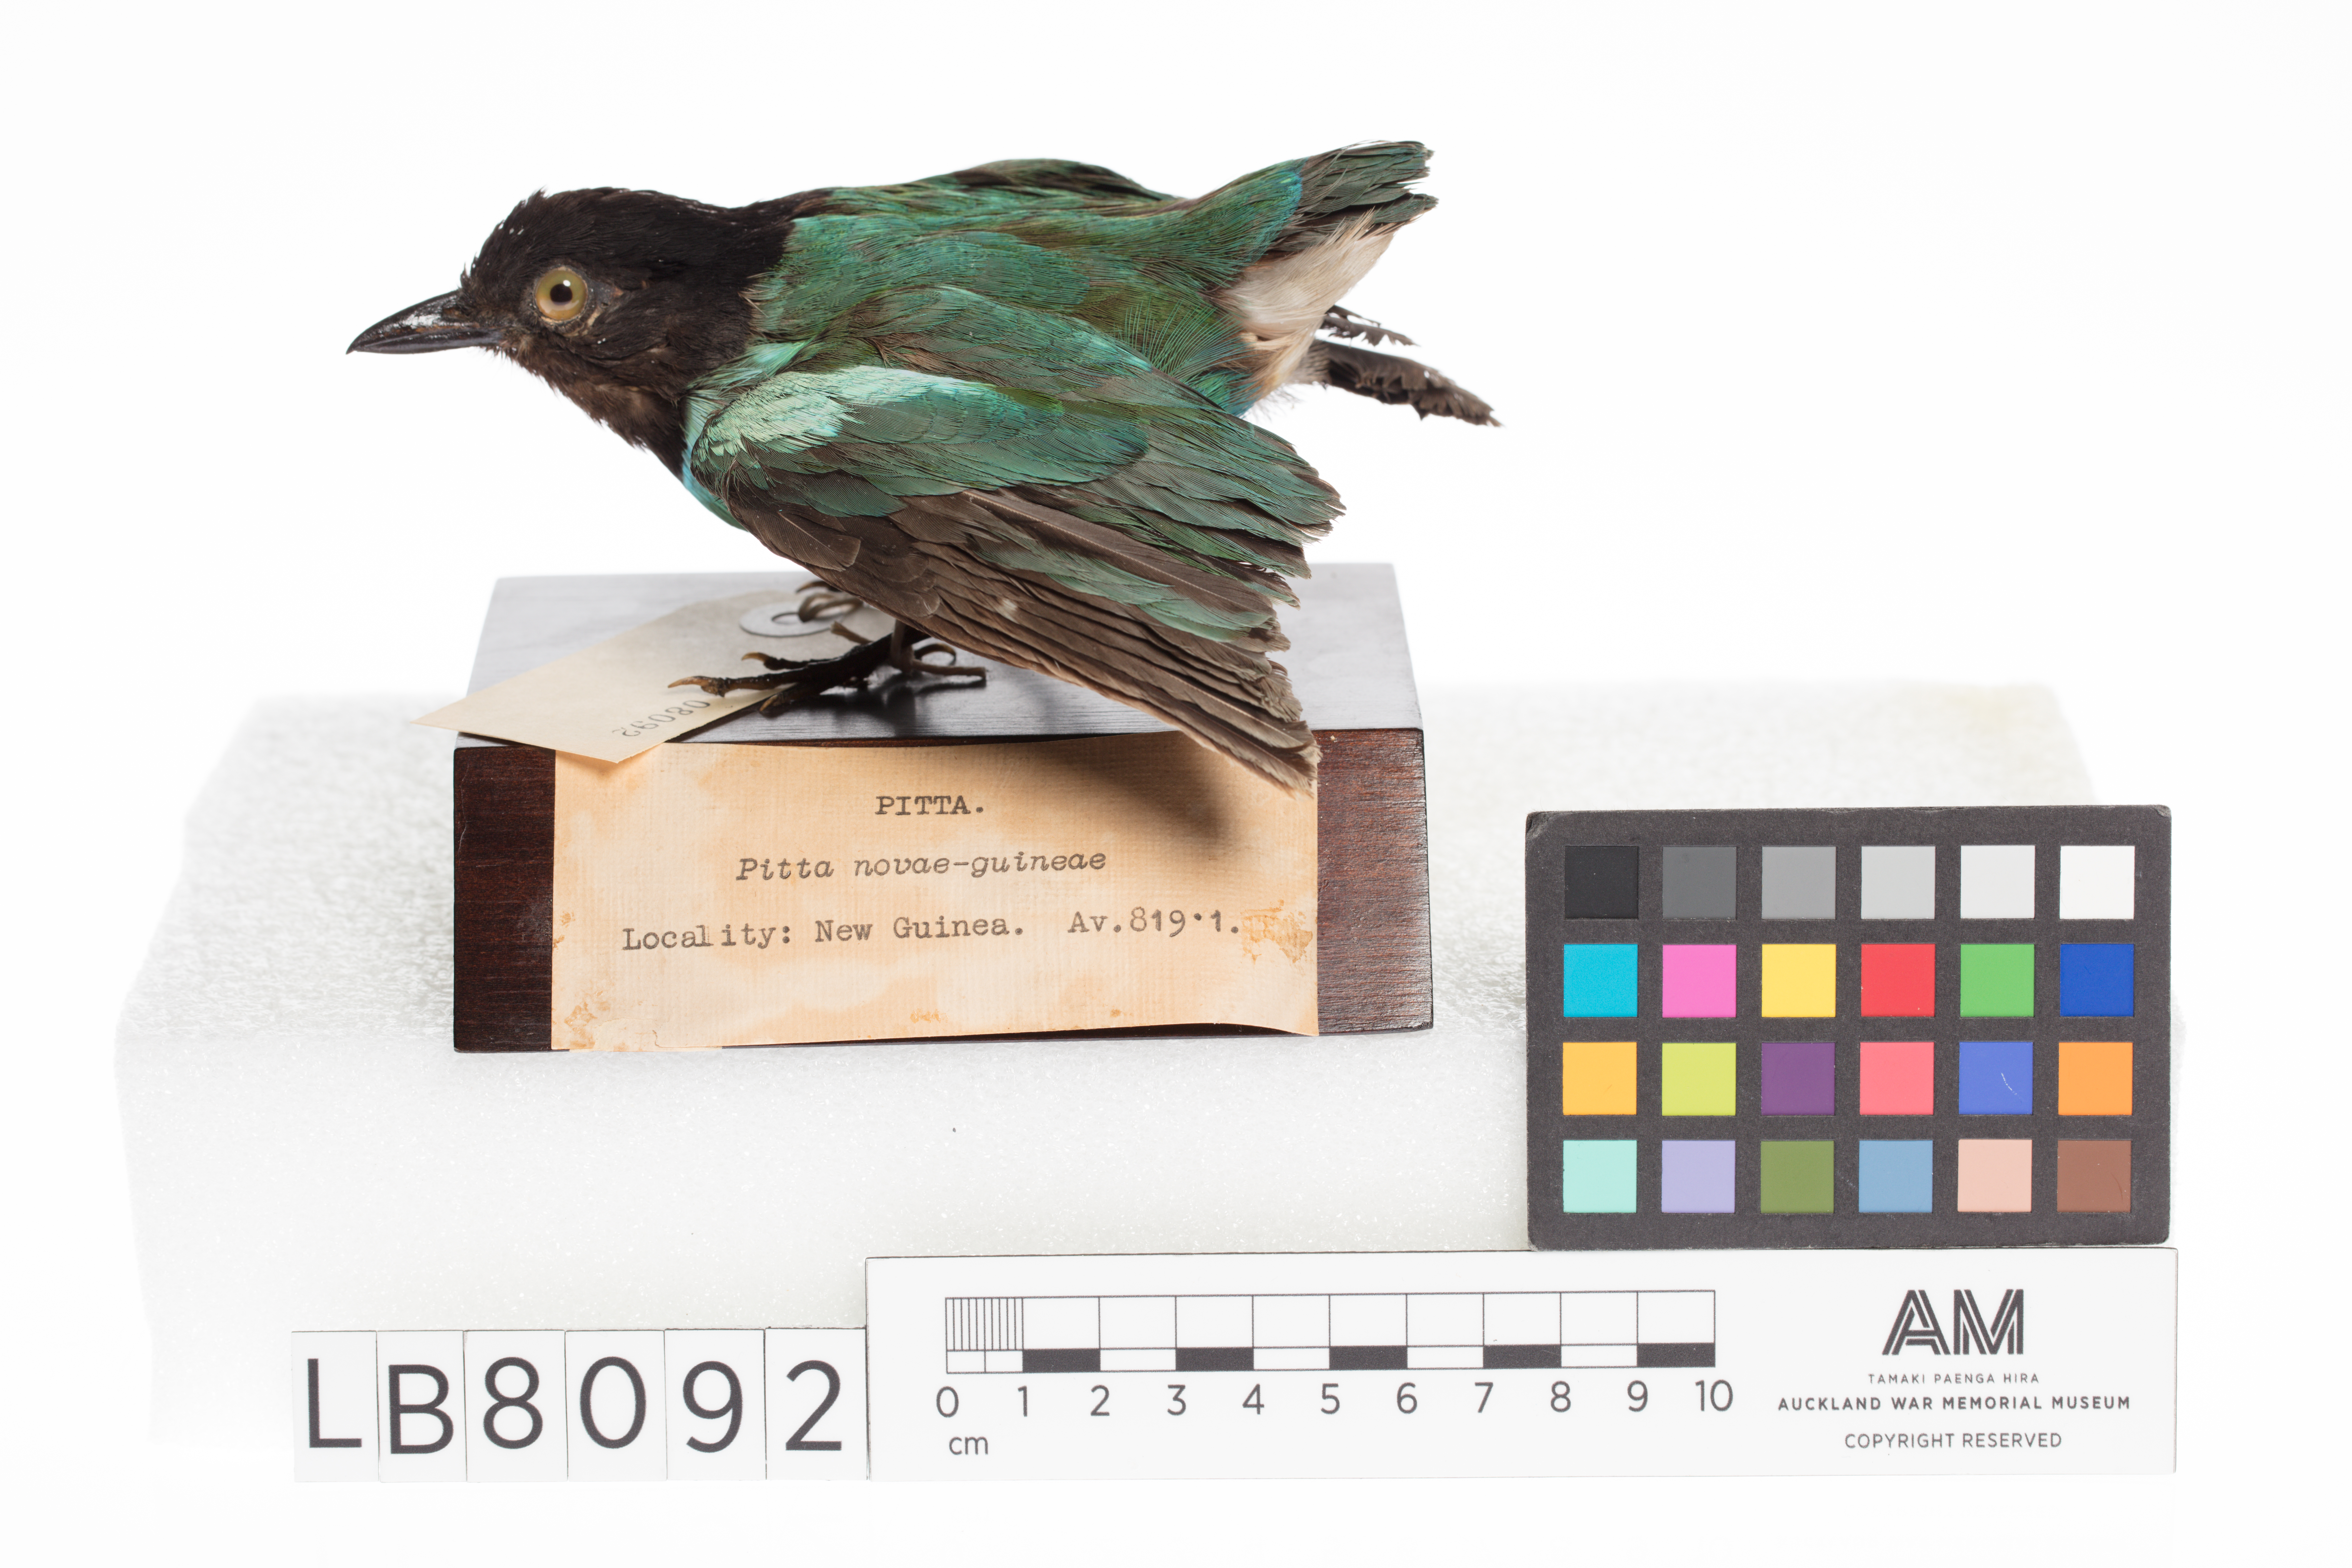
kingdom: Animalia
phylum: Chordata
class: Aves
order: Passeriformes
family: Pittidae
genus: Pitta
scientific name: Pitta sordida
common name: Hooded pitta
